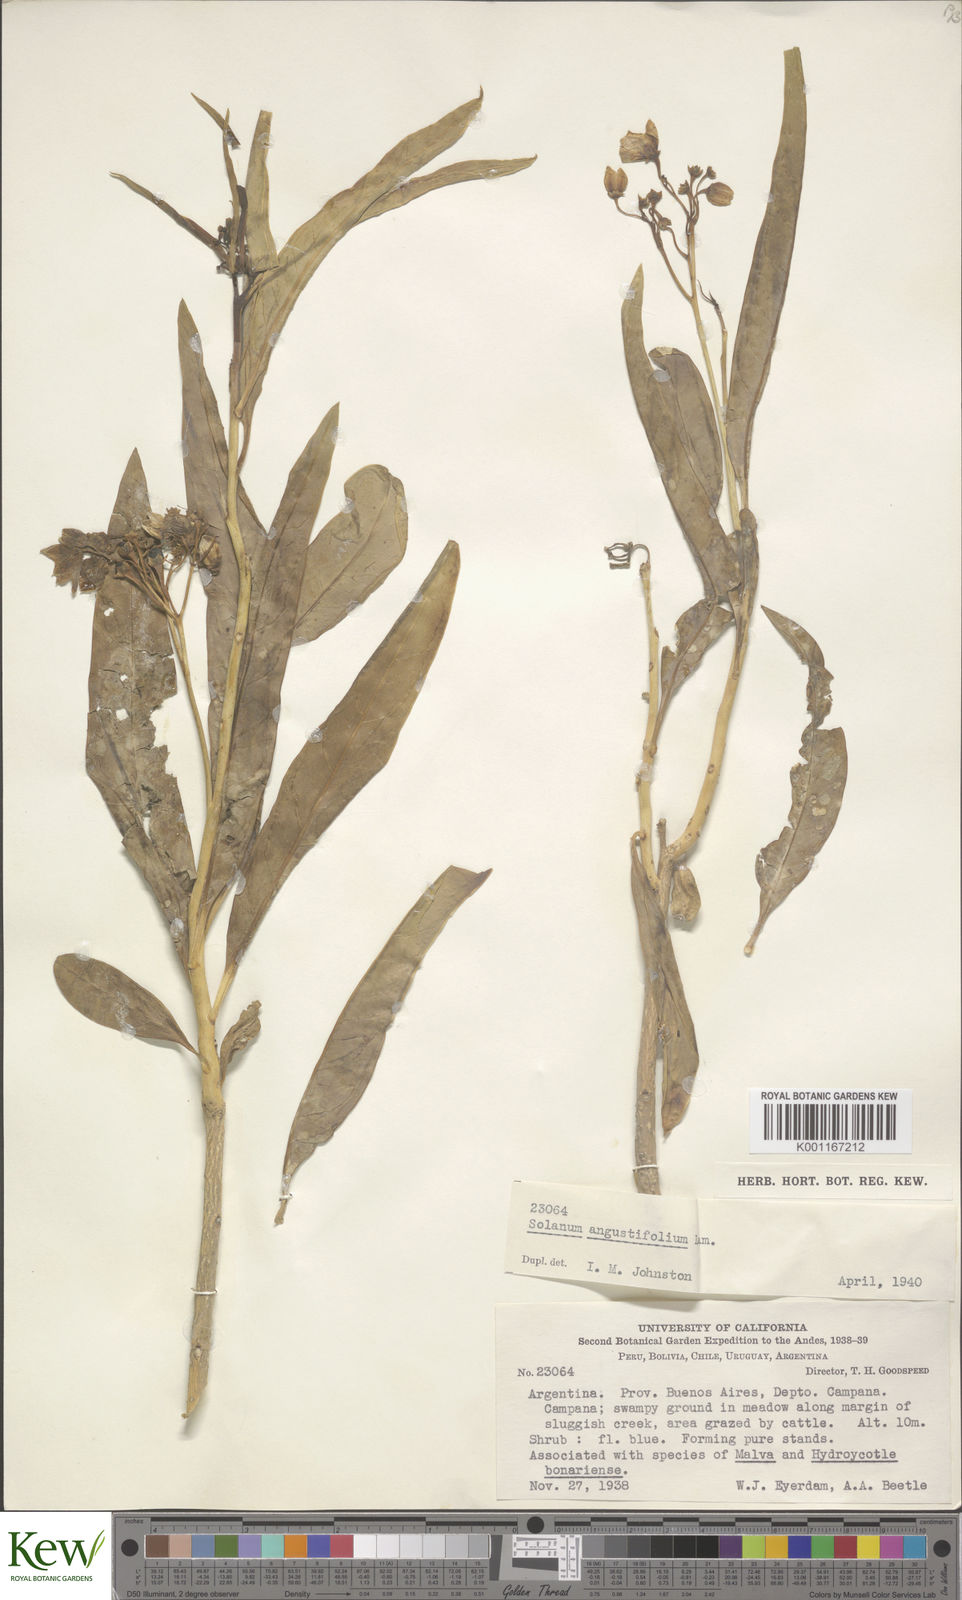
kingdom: Plantae
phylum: Tracheophyta
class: Magnoliopsida
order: Solanales
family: Solanaceae
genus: Solanum
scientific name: Solanum amygdalifolium
